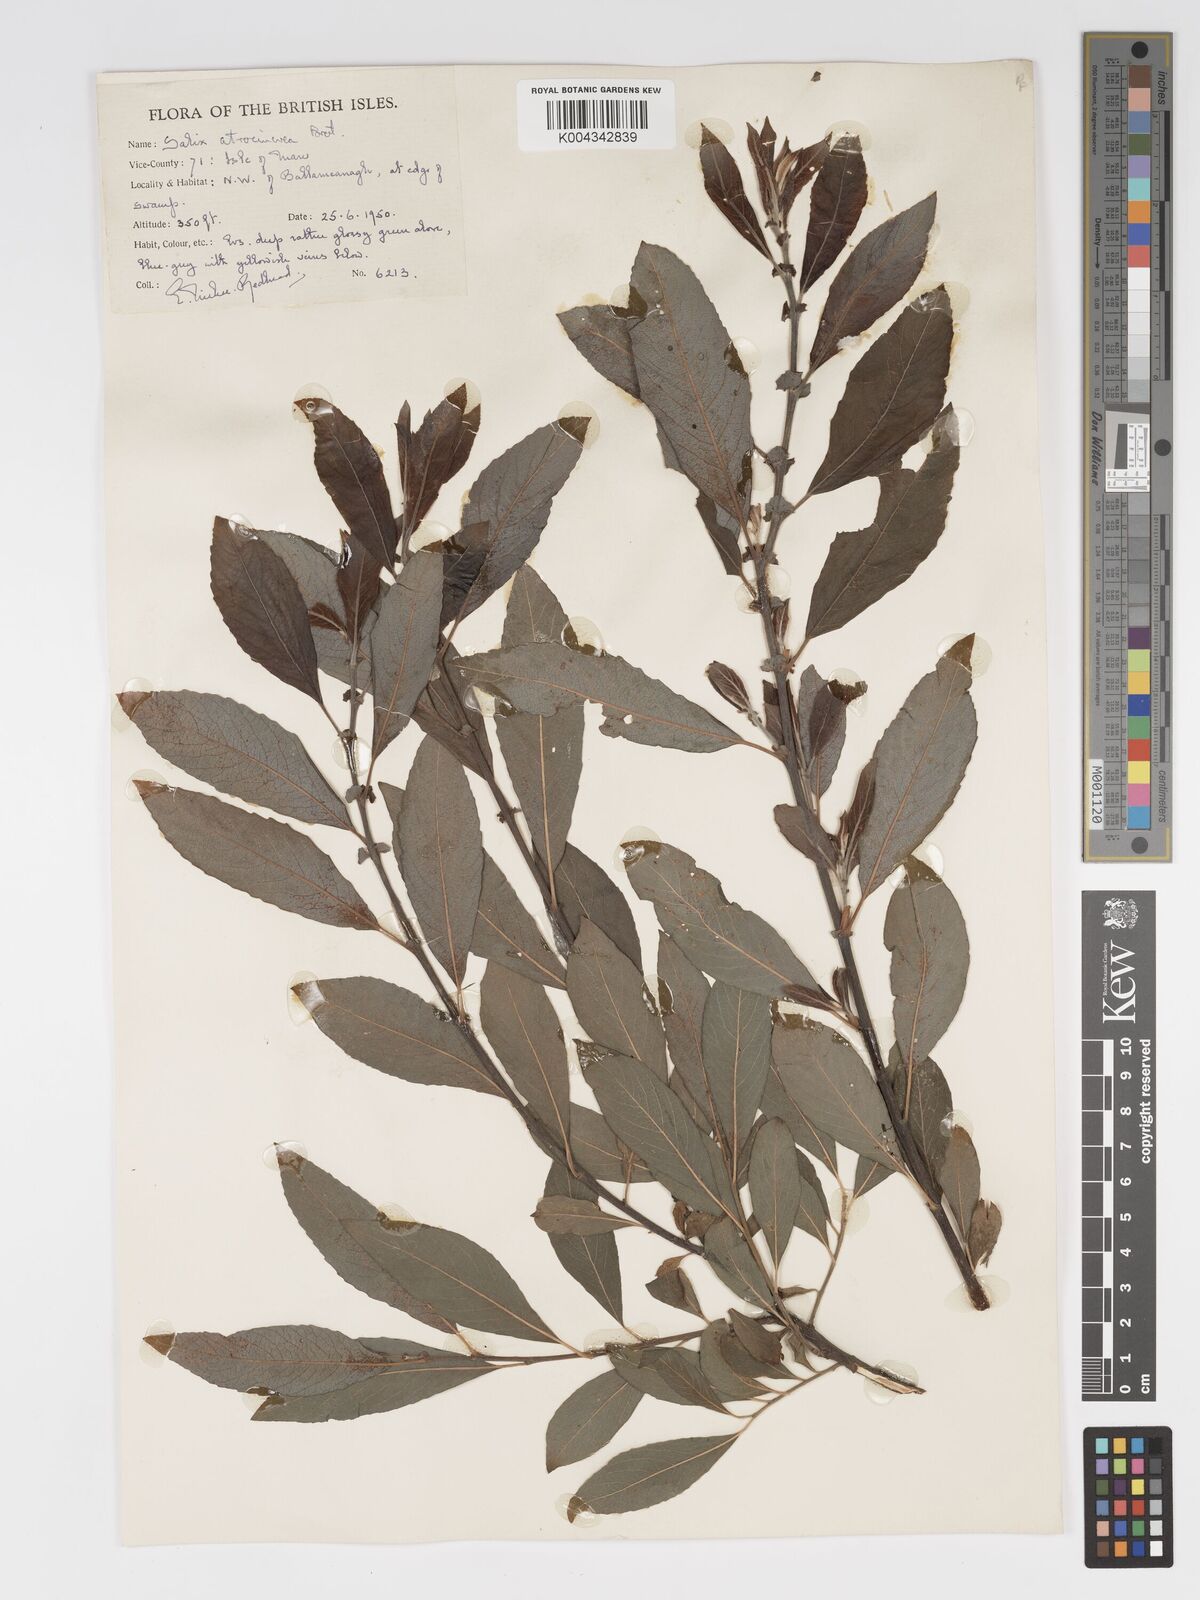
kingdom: Plantae
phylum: Tracheophyta
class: Magnoliopsida
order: Malpighiales
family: Salicaceae
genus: Salix
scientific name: Salix atrocinerea
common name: Rusty willow
